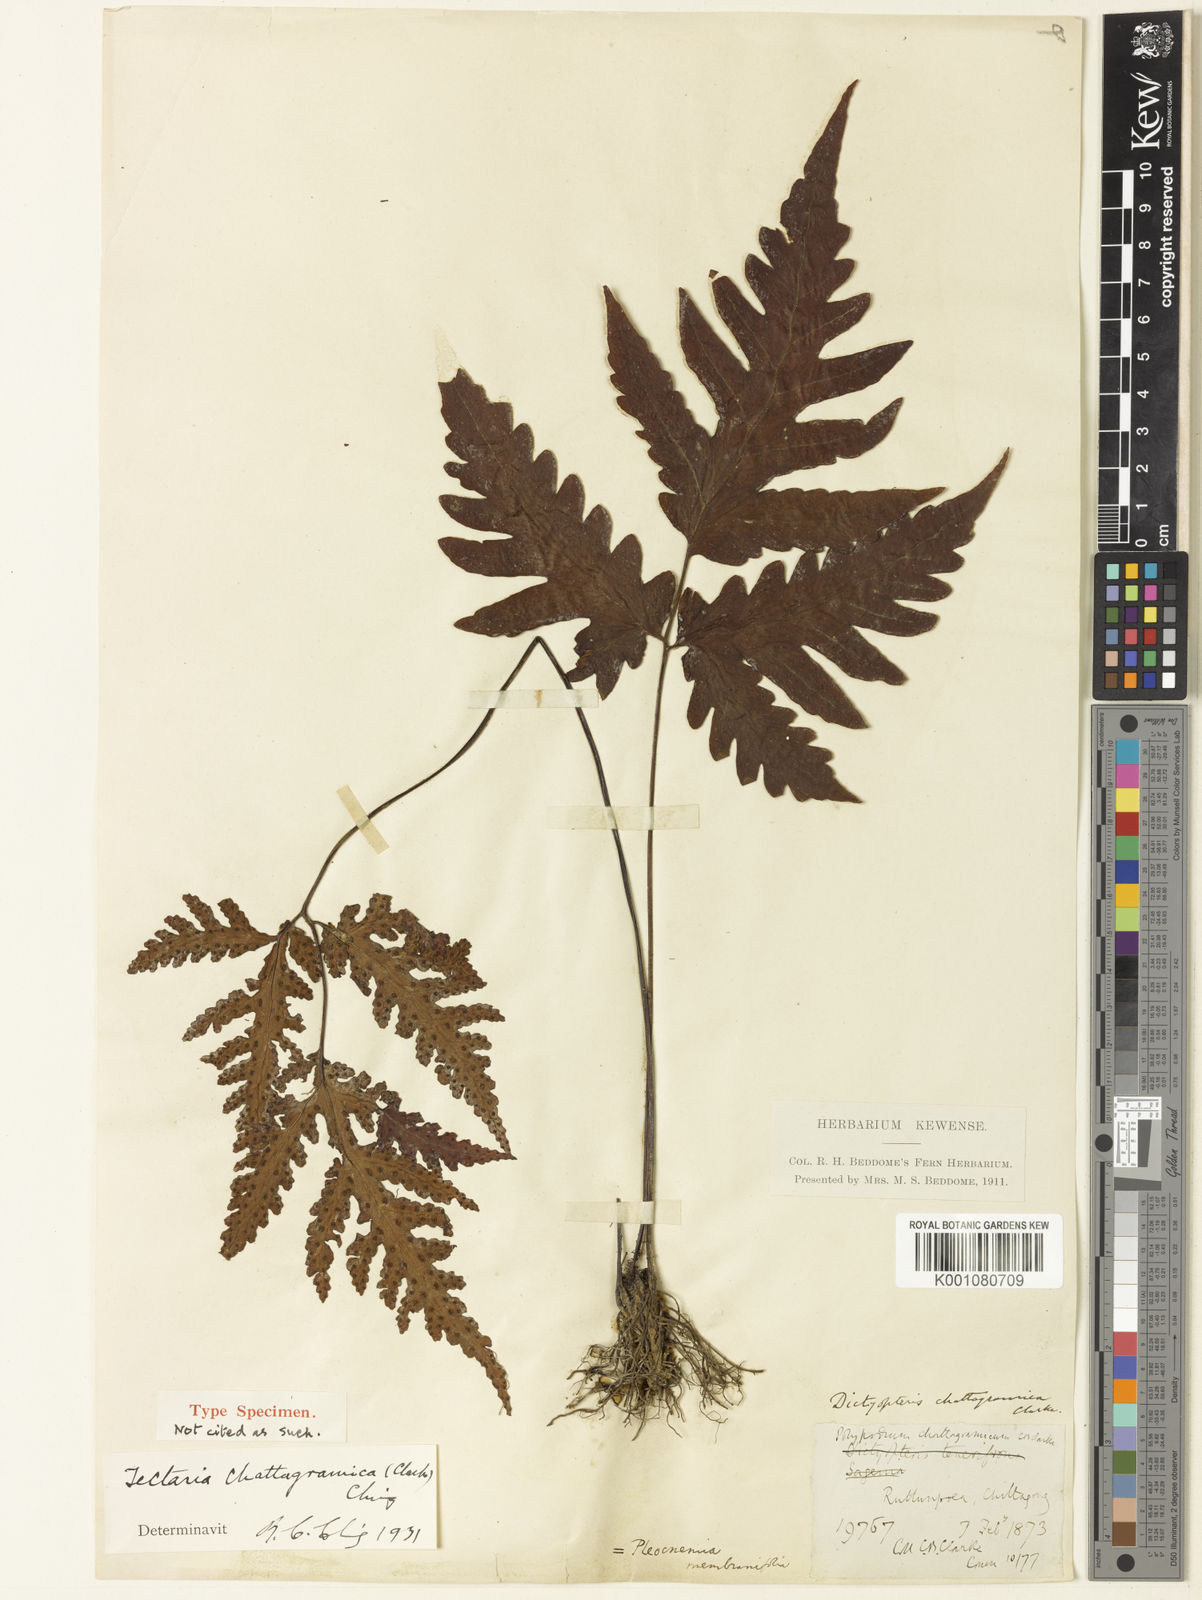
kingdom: Plantae
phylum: Tracheophyta
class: Polypodiopsida
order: Polypodiales
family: Tectariaceae
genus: Tectaria
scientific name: Tectaria chattagrammica
